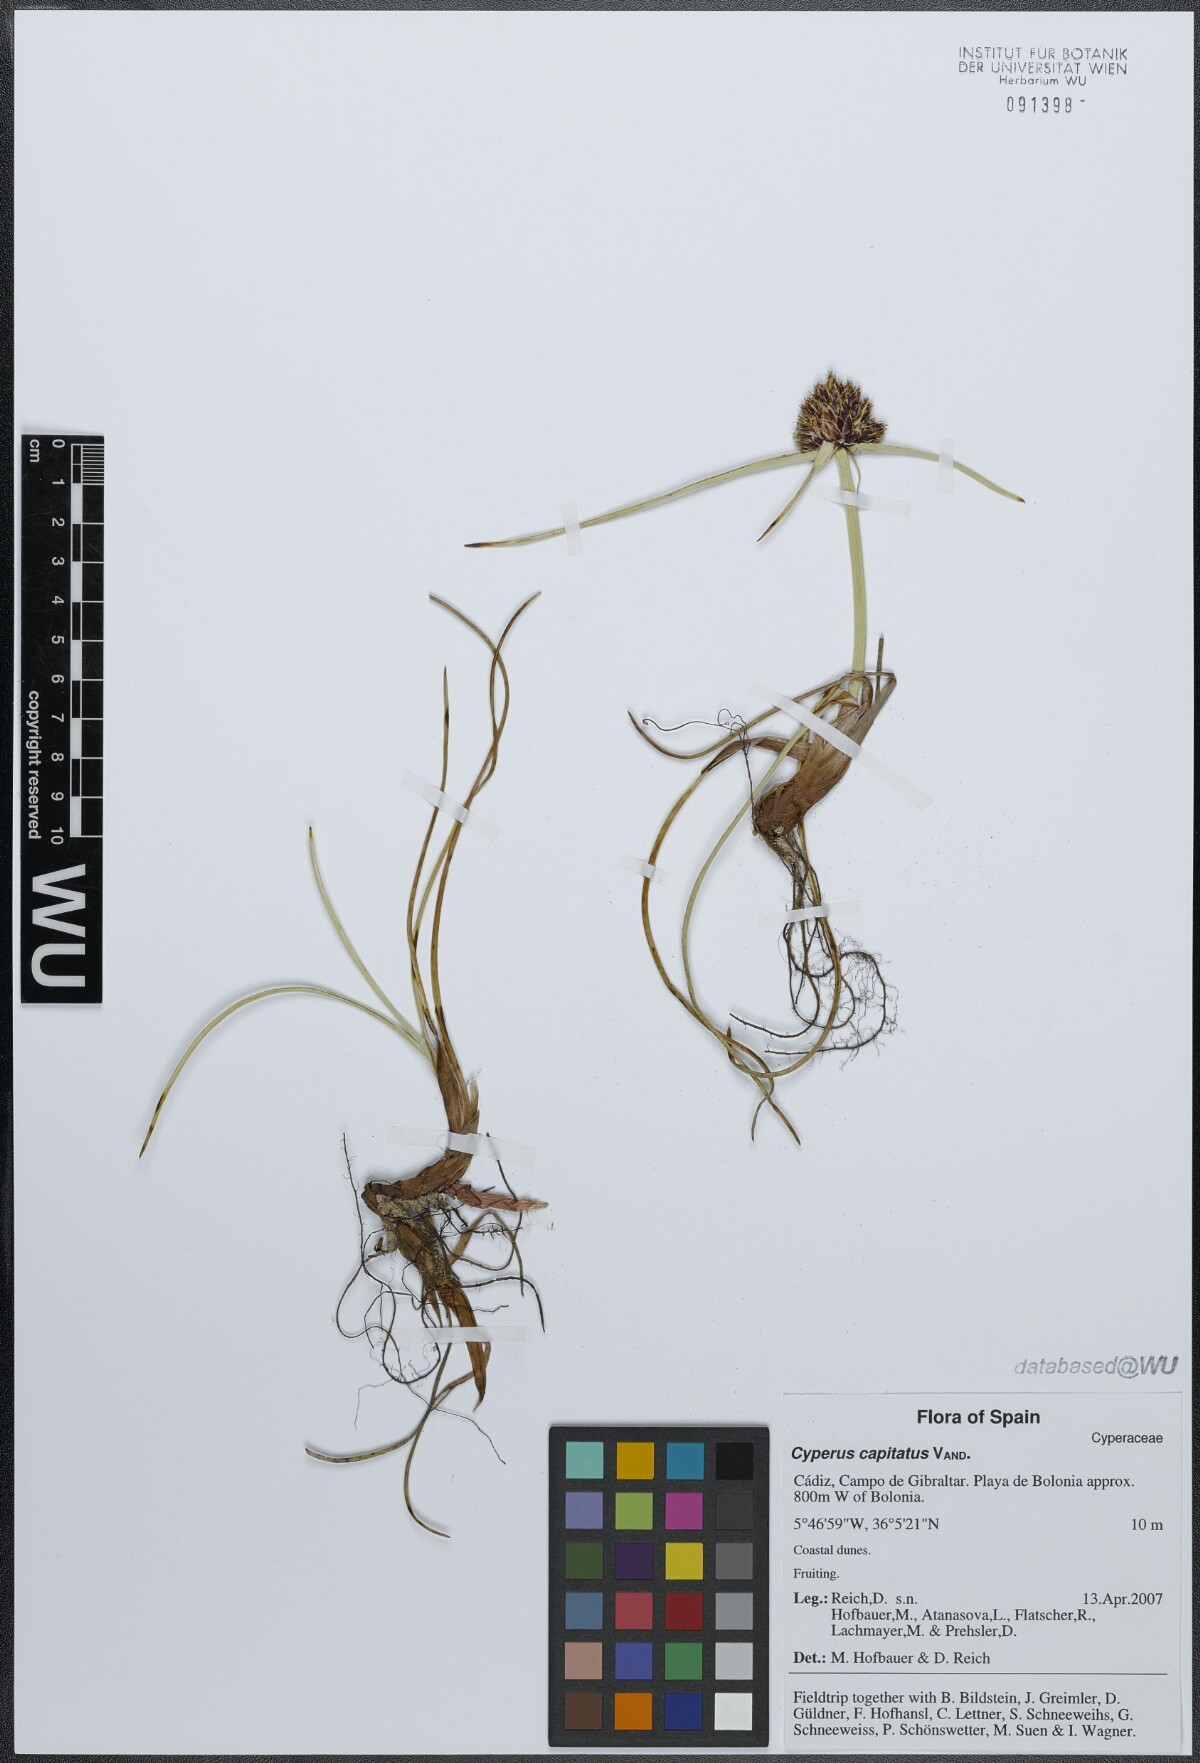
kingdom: Plantae
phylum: Tracheophyta
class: Liliopsida
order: Poales
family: Cyperaceae
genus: Cyperus
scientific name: Cyperus capitatus
